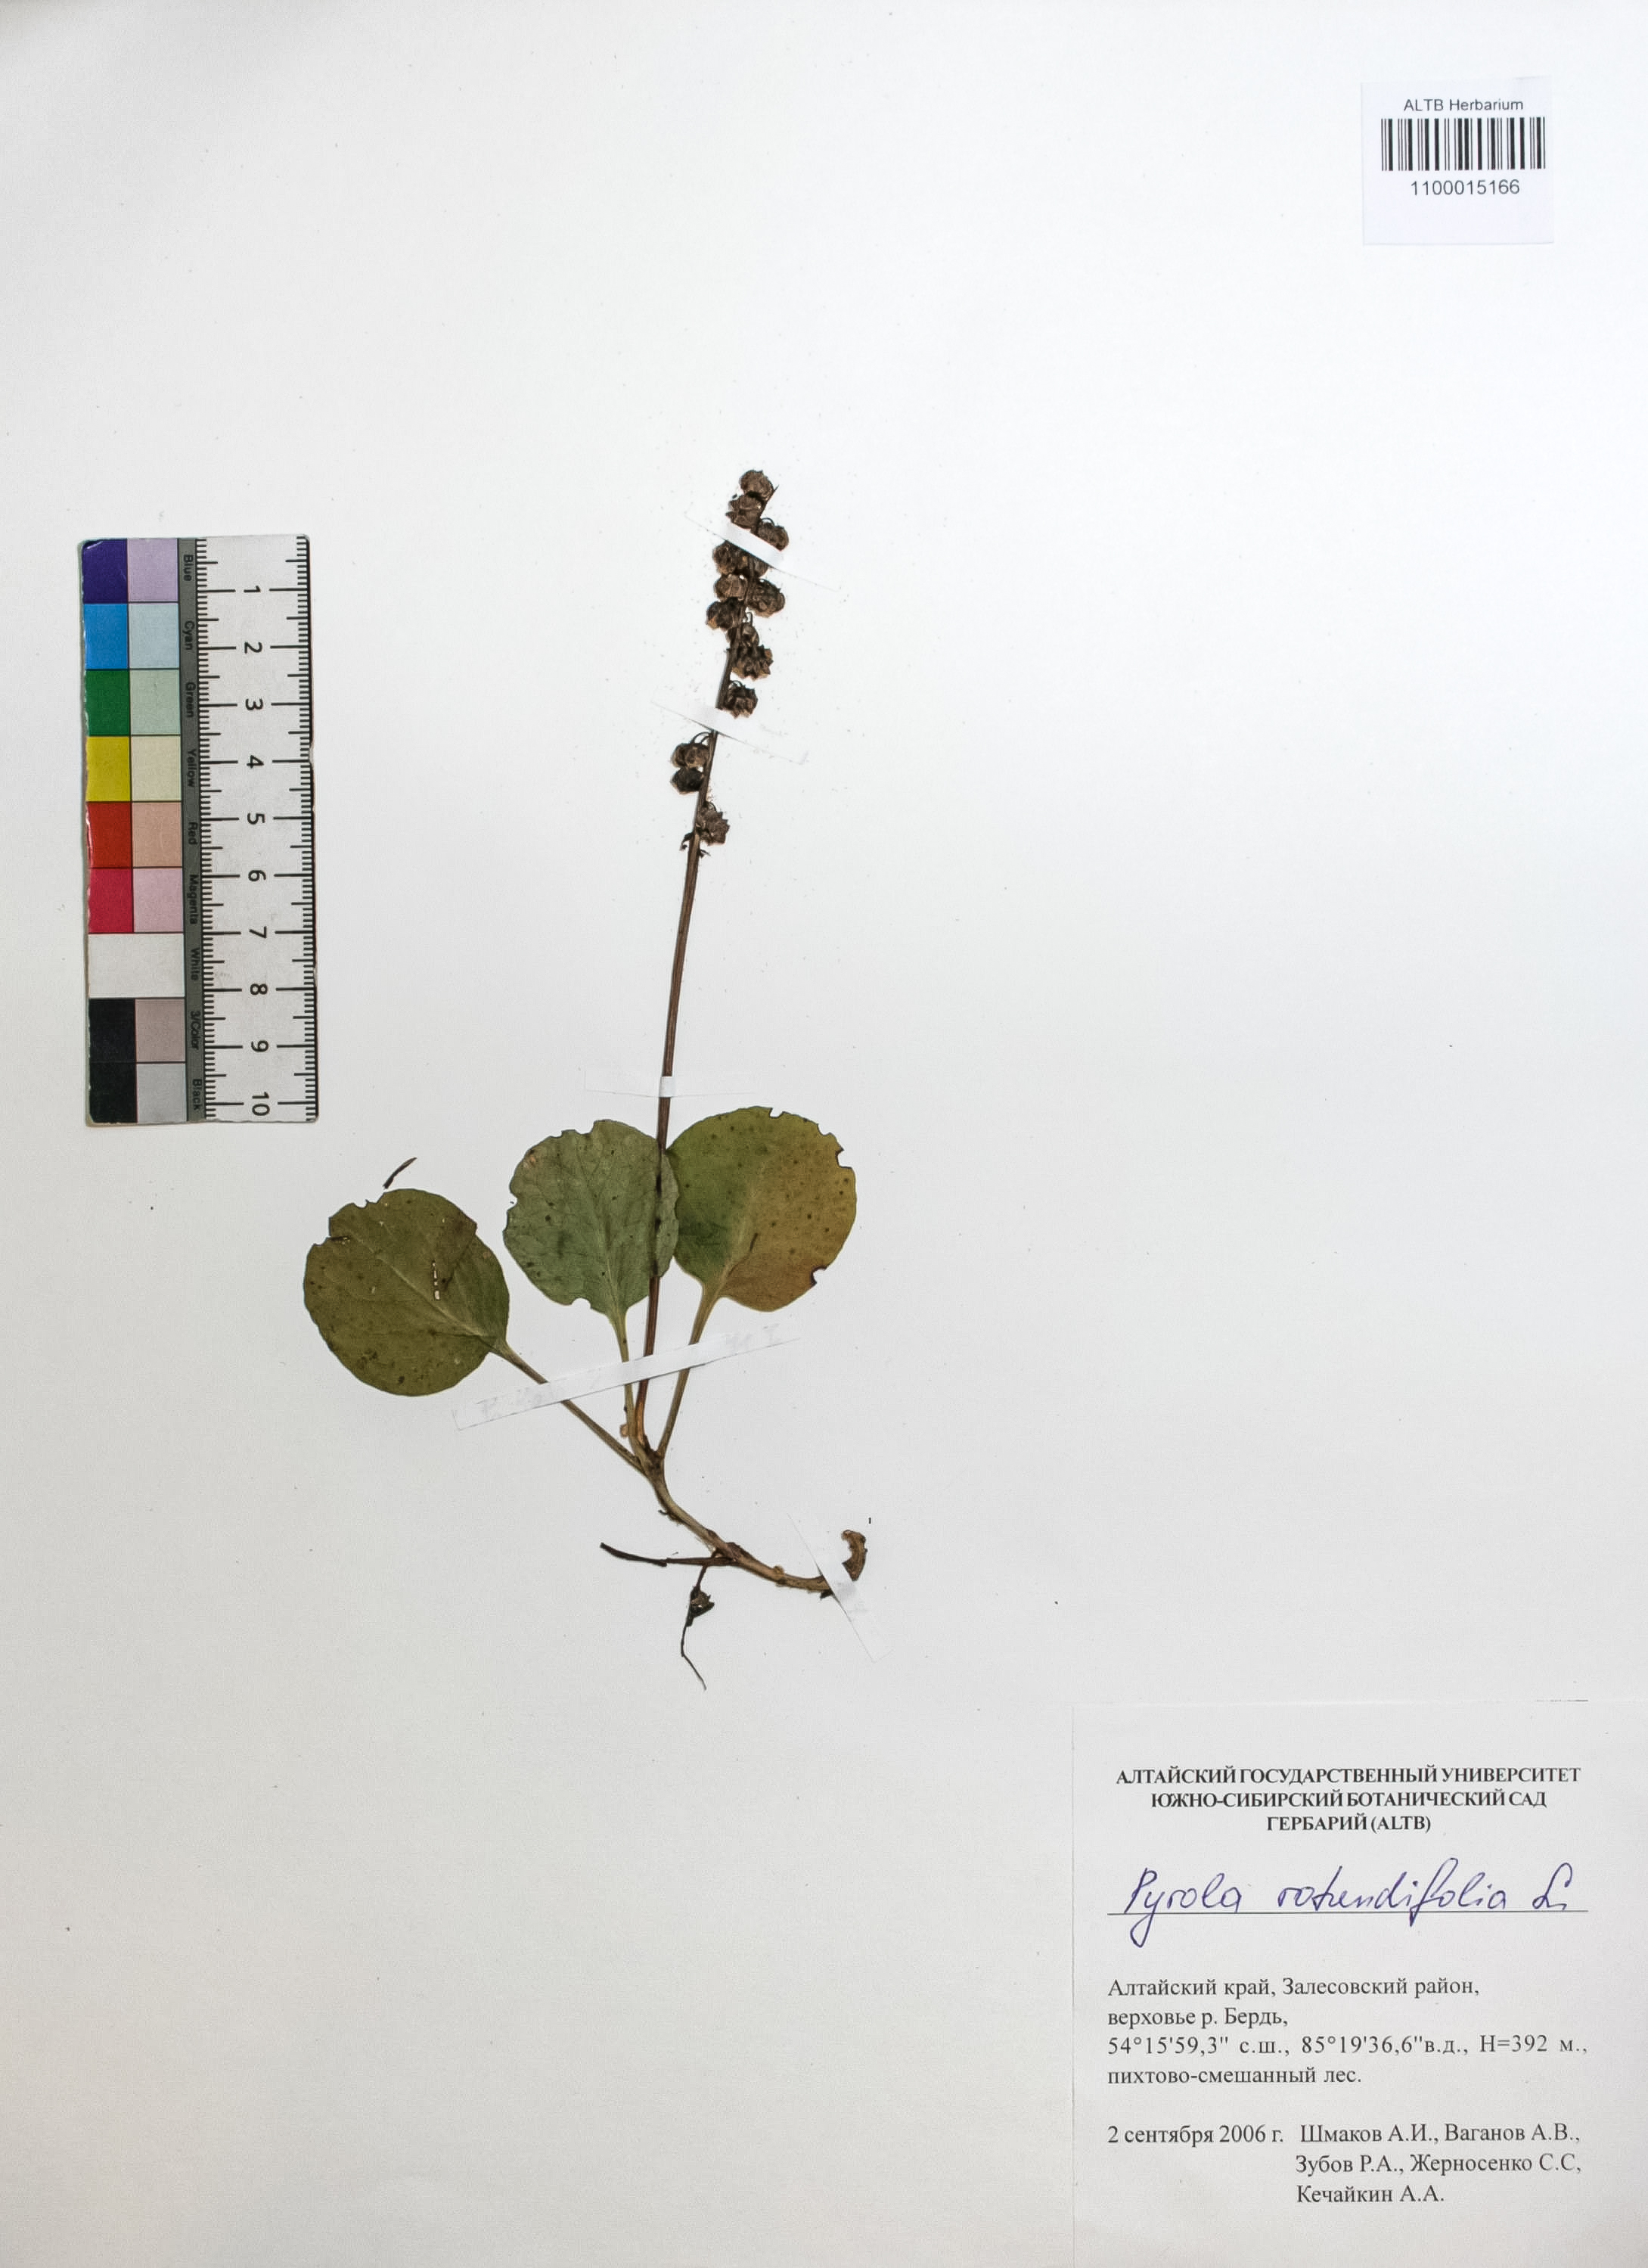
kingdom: Plantae
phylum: Tracheophyta
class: Magnoliopsida
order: Ericales
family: Ericaceae
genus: Pyrola
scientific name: Pyrola rotundifolia
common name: Round-leaved wintergreen
